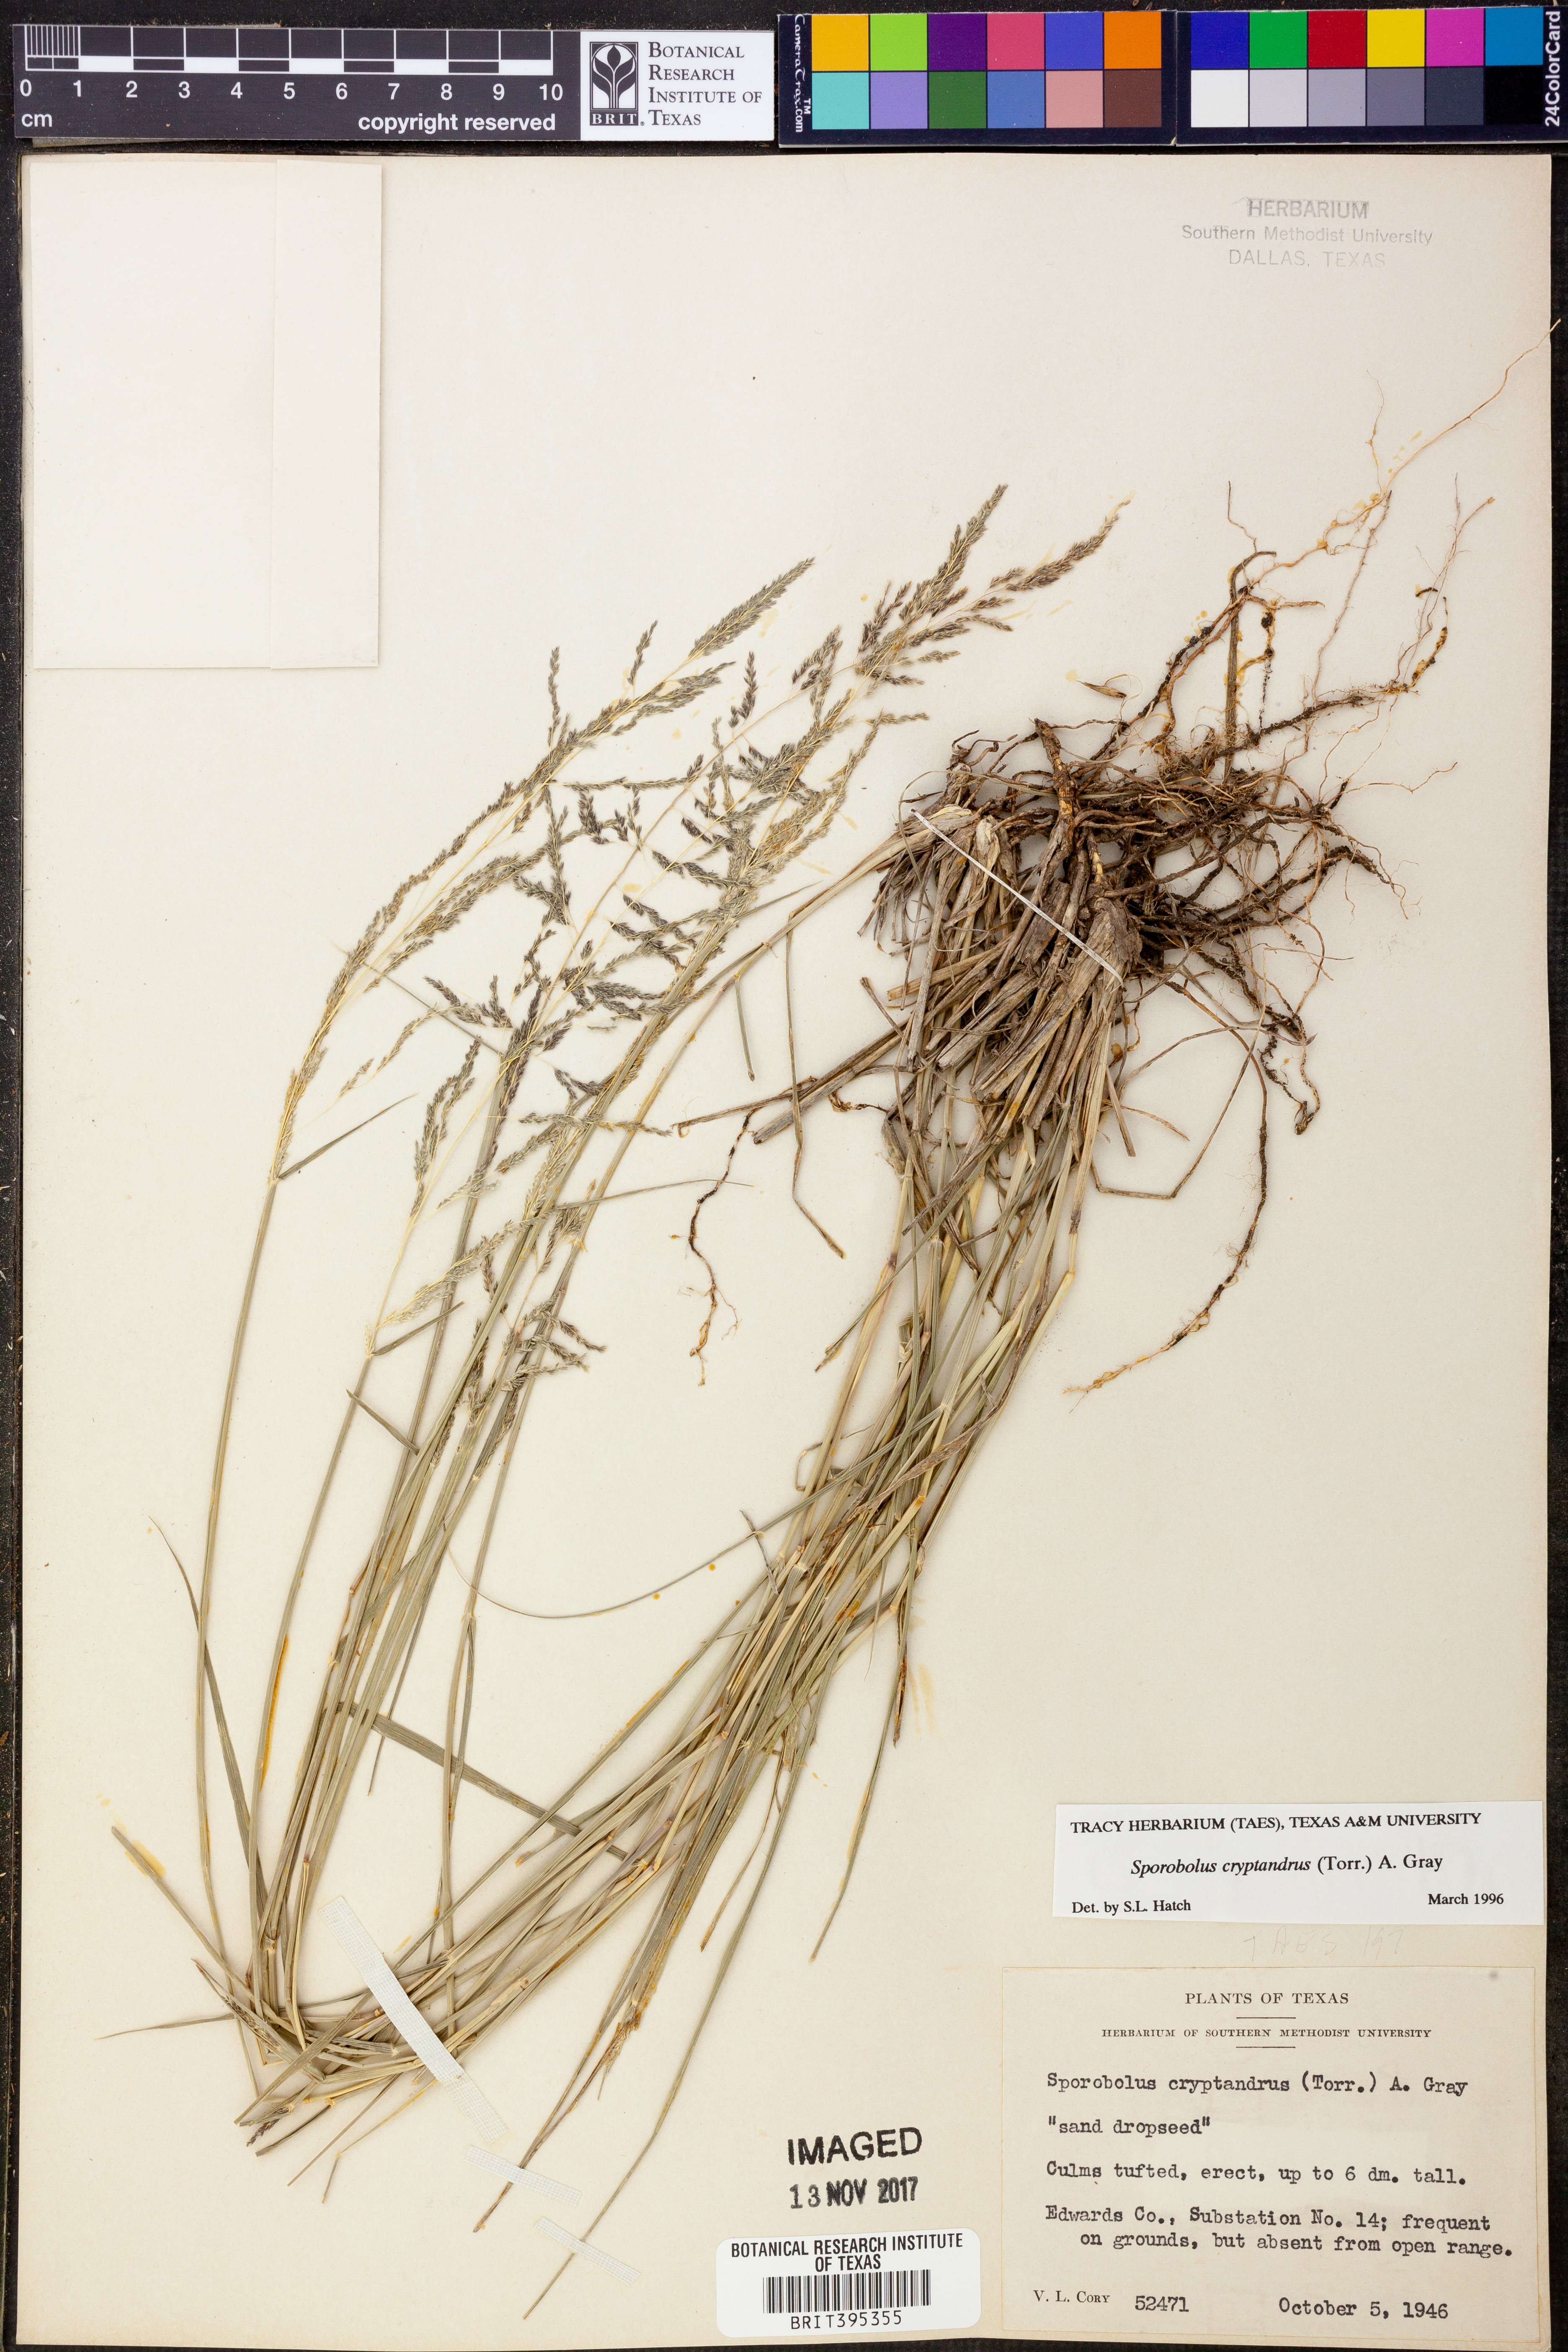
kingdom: Plantae
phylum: Tracheophyta
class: Liliopsida
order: Poales
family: Poaceae
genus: Sporobolus
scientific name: Sporobolus cryptandrus
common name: Sand dropseed
